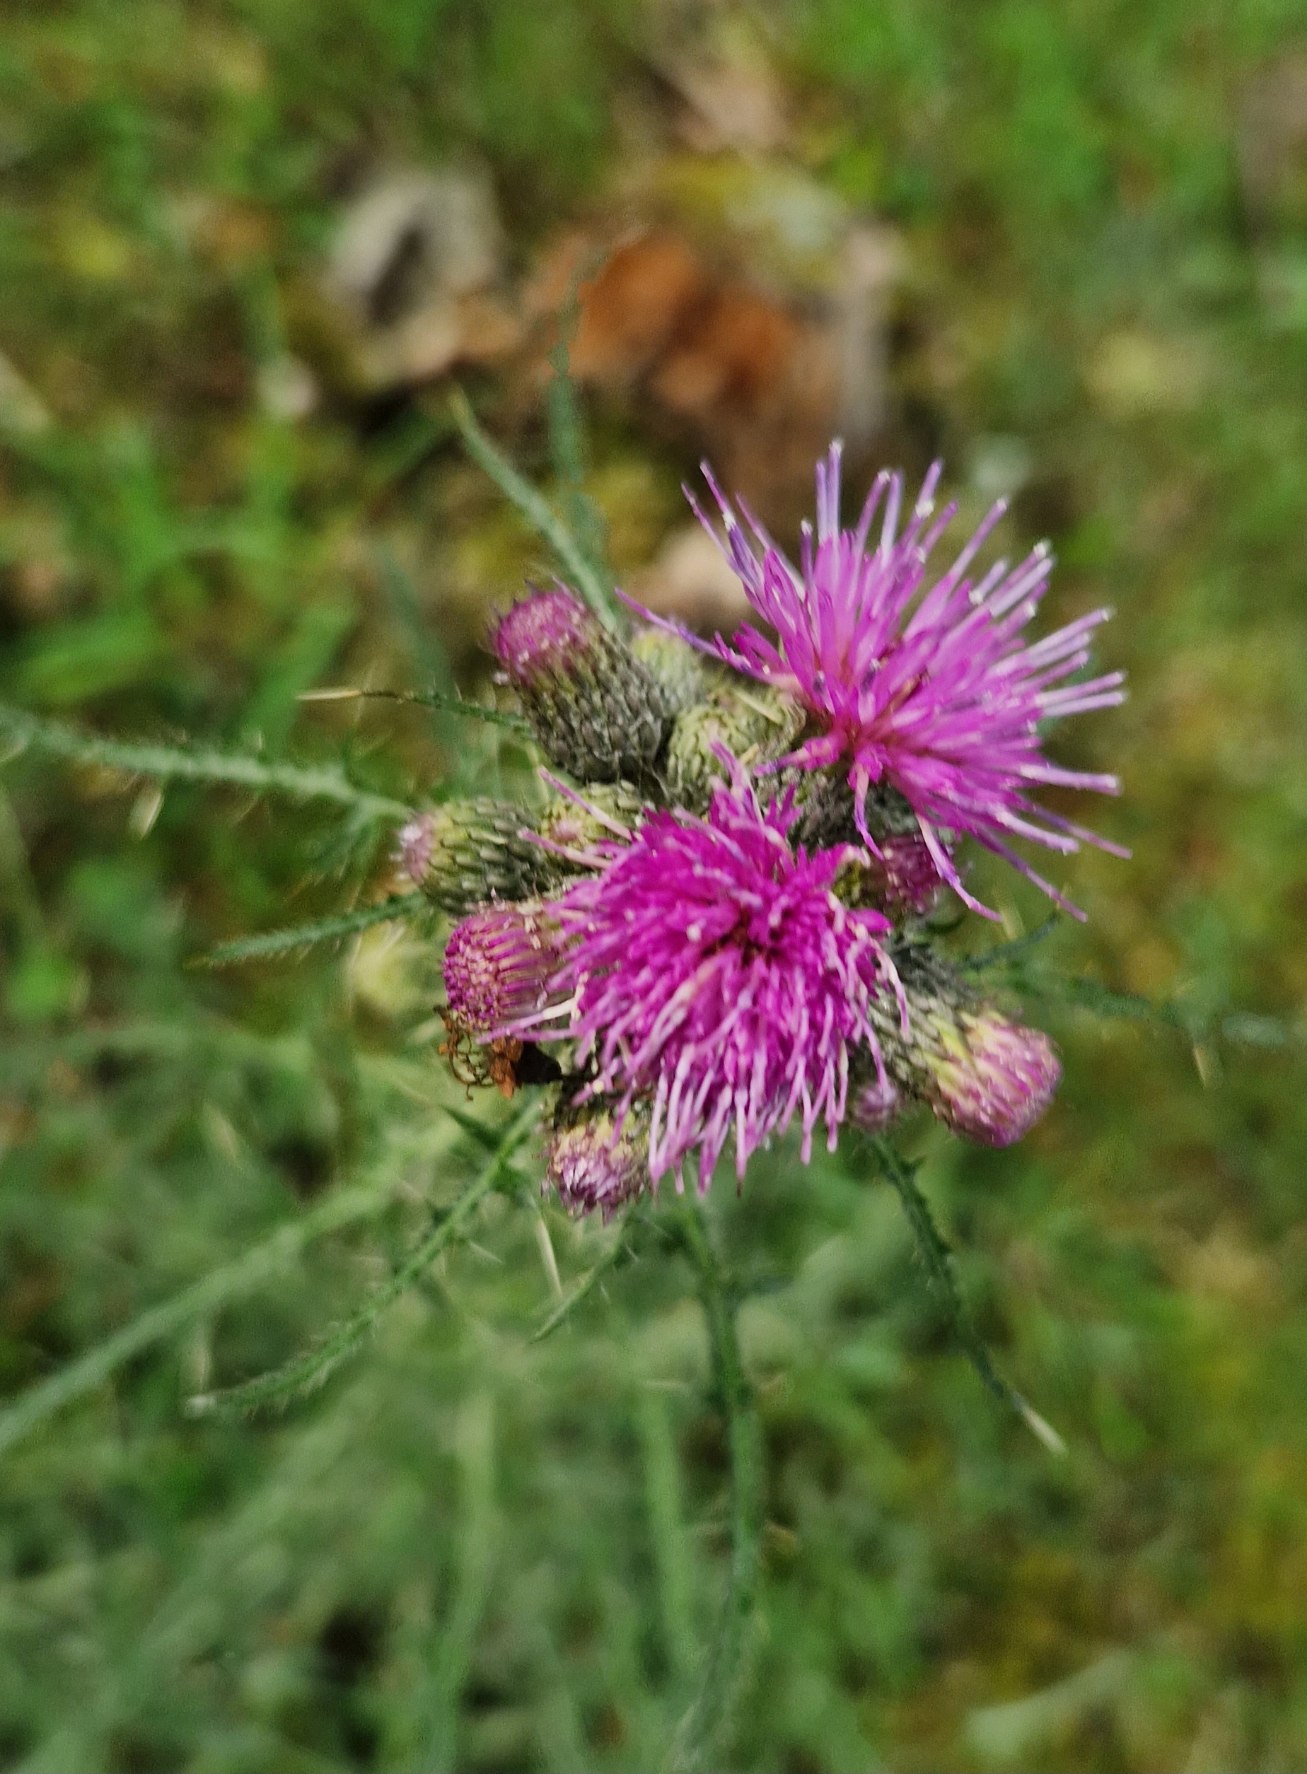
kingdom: Plantae
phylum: Tracheophyta
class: Magnoliopsida
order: Asterales
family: Asteraceae
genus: Cirsium
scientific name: Cirsium palustre
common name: Kær-tidsel
